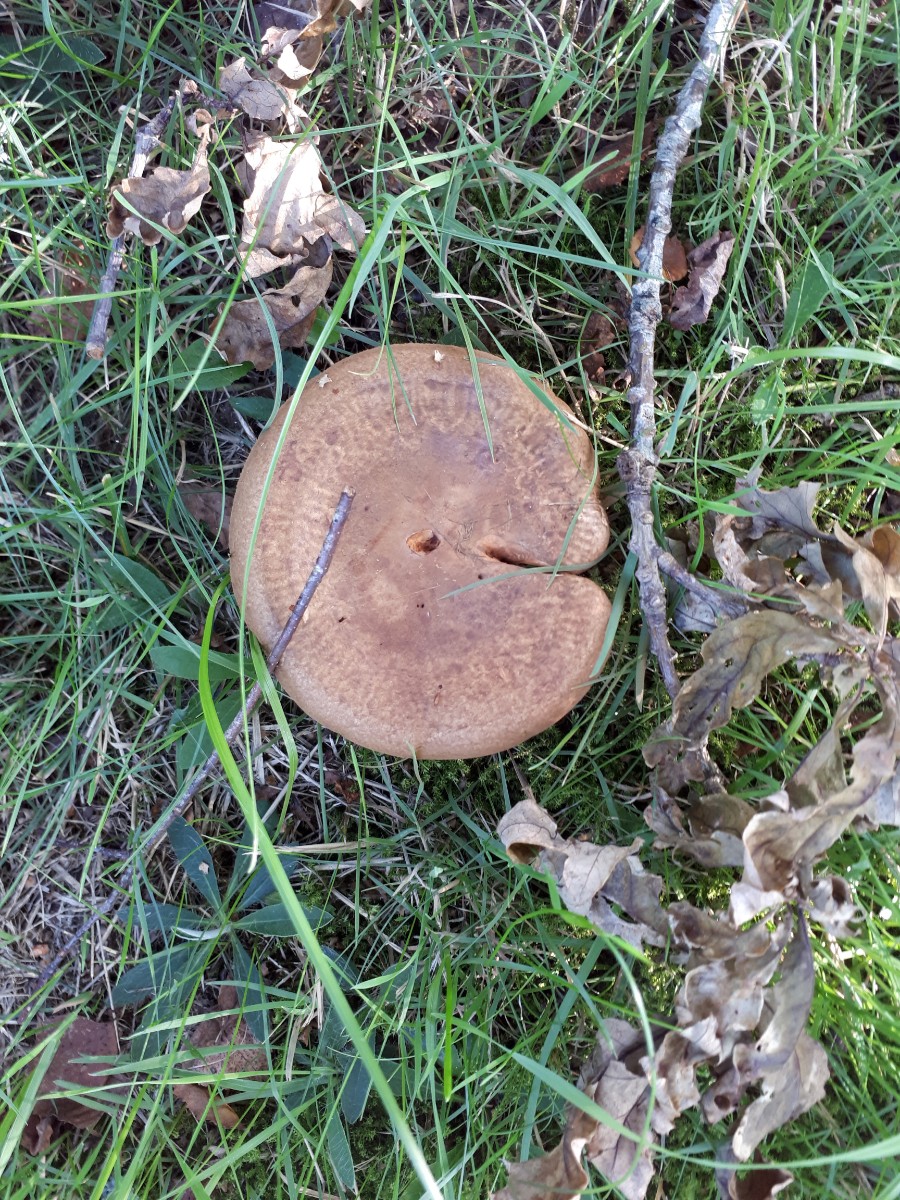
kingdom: Fungi
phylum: Basidiomycota
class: Agaricomycetes
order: Boletales
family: Paxillaceae
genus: Paxillus
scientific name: Paxillus involutus
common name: almindelig netbladhat
